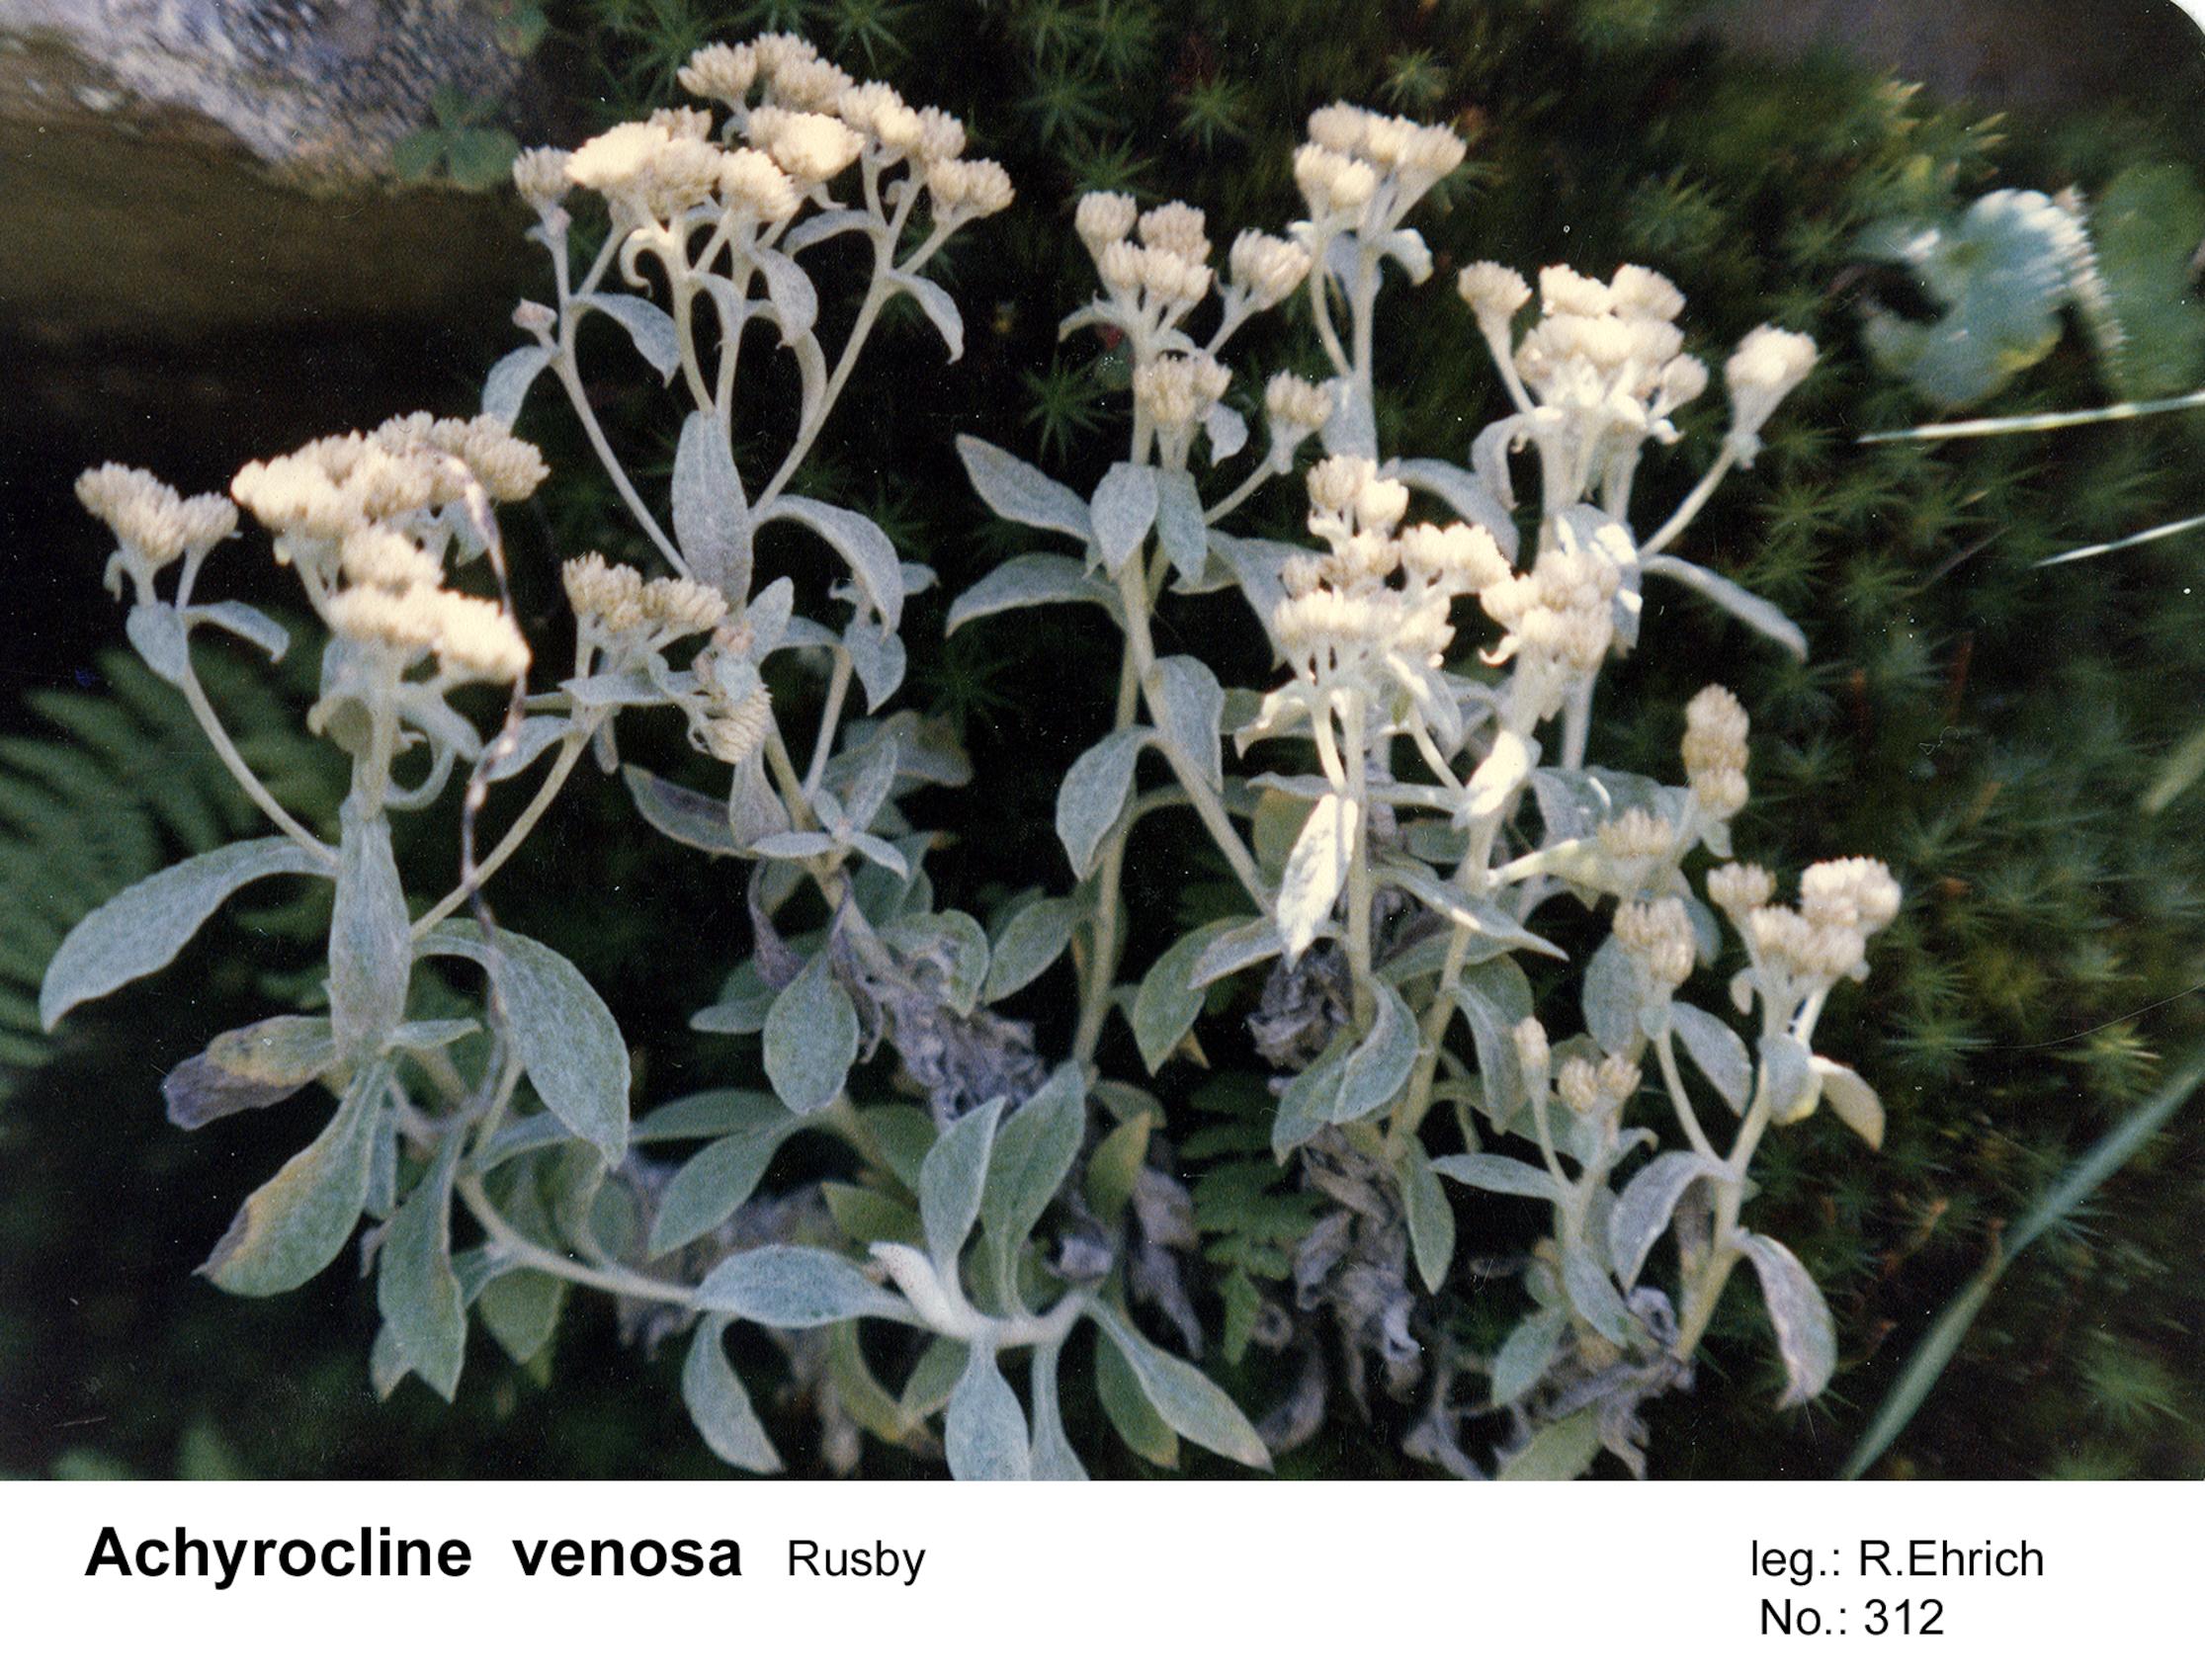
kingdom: Plantae
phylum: Tracheophyta
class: Magnoliopsida
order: Asterales
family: Asteraceae
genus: Achyrocline
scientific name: Achyrocline venosa
